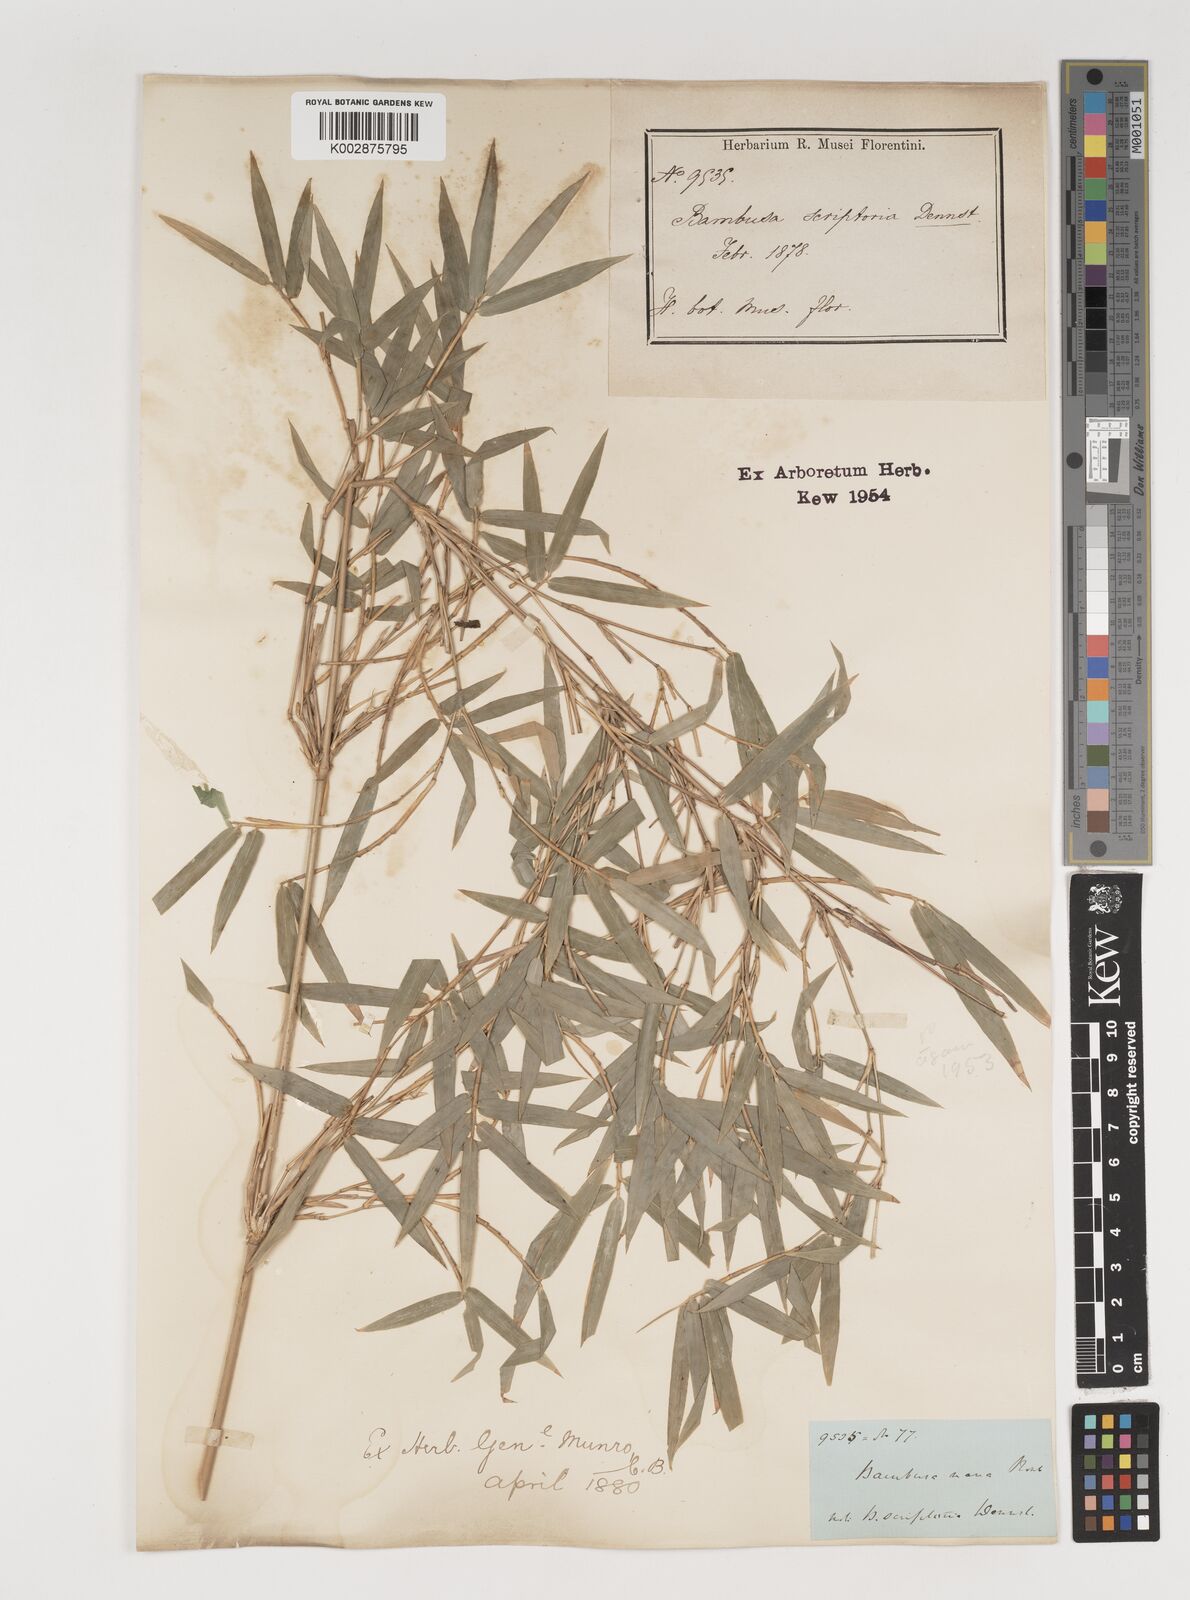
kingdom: Plantae
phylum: Tracheophyta
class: Liliopsida
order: Poales
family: Poaceae
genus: Bambusa
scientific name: Bambusa multiplex
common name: Hedge bamboo
